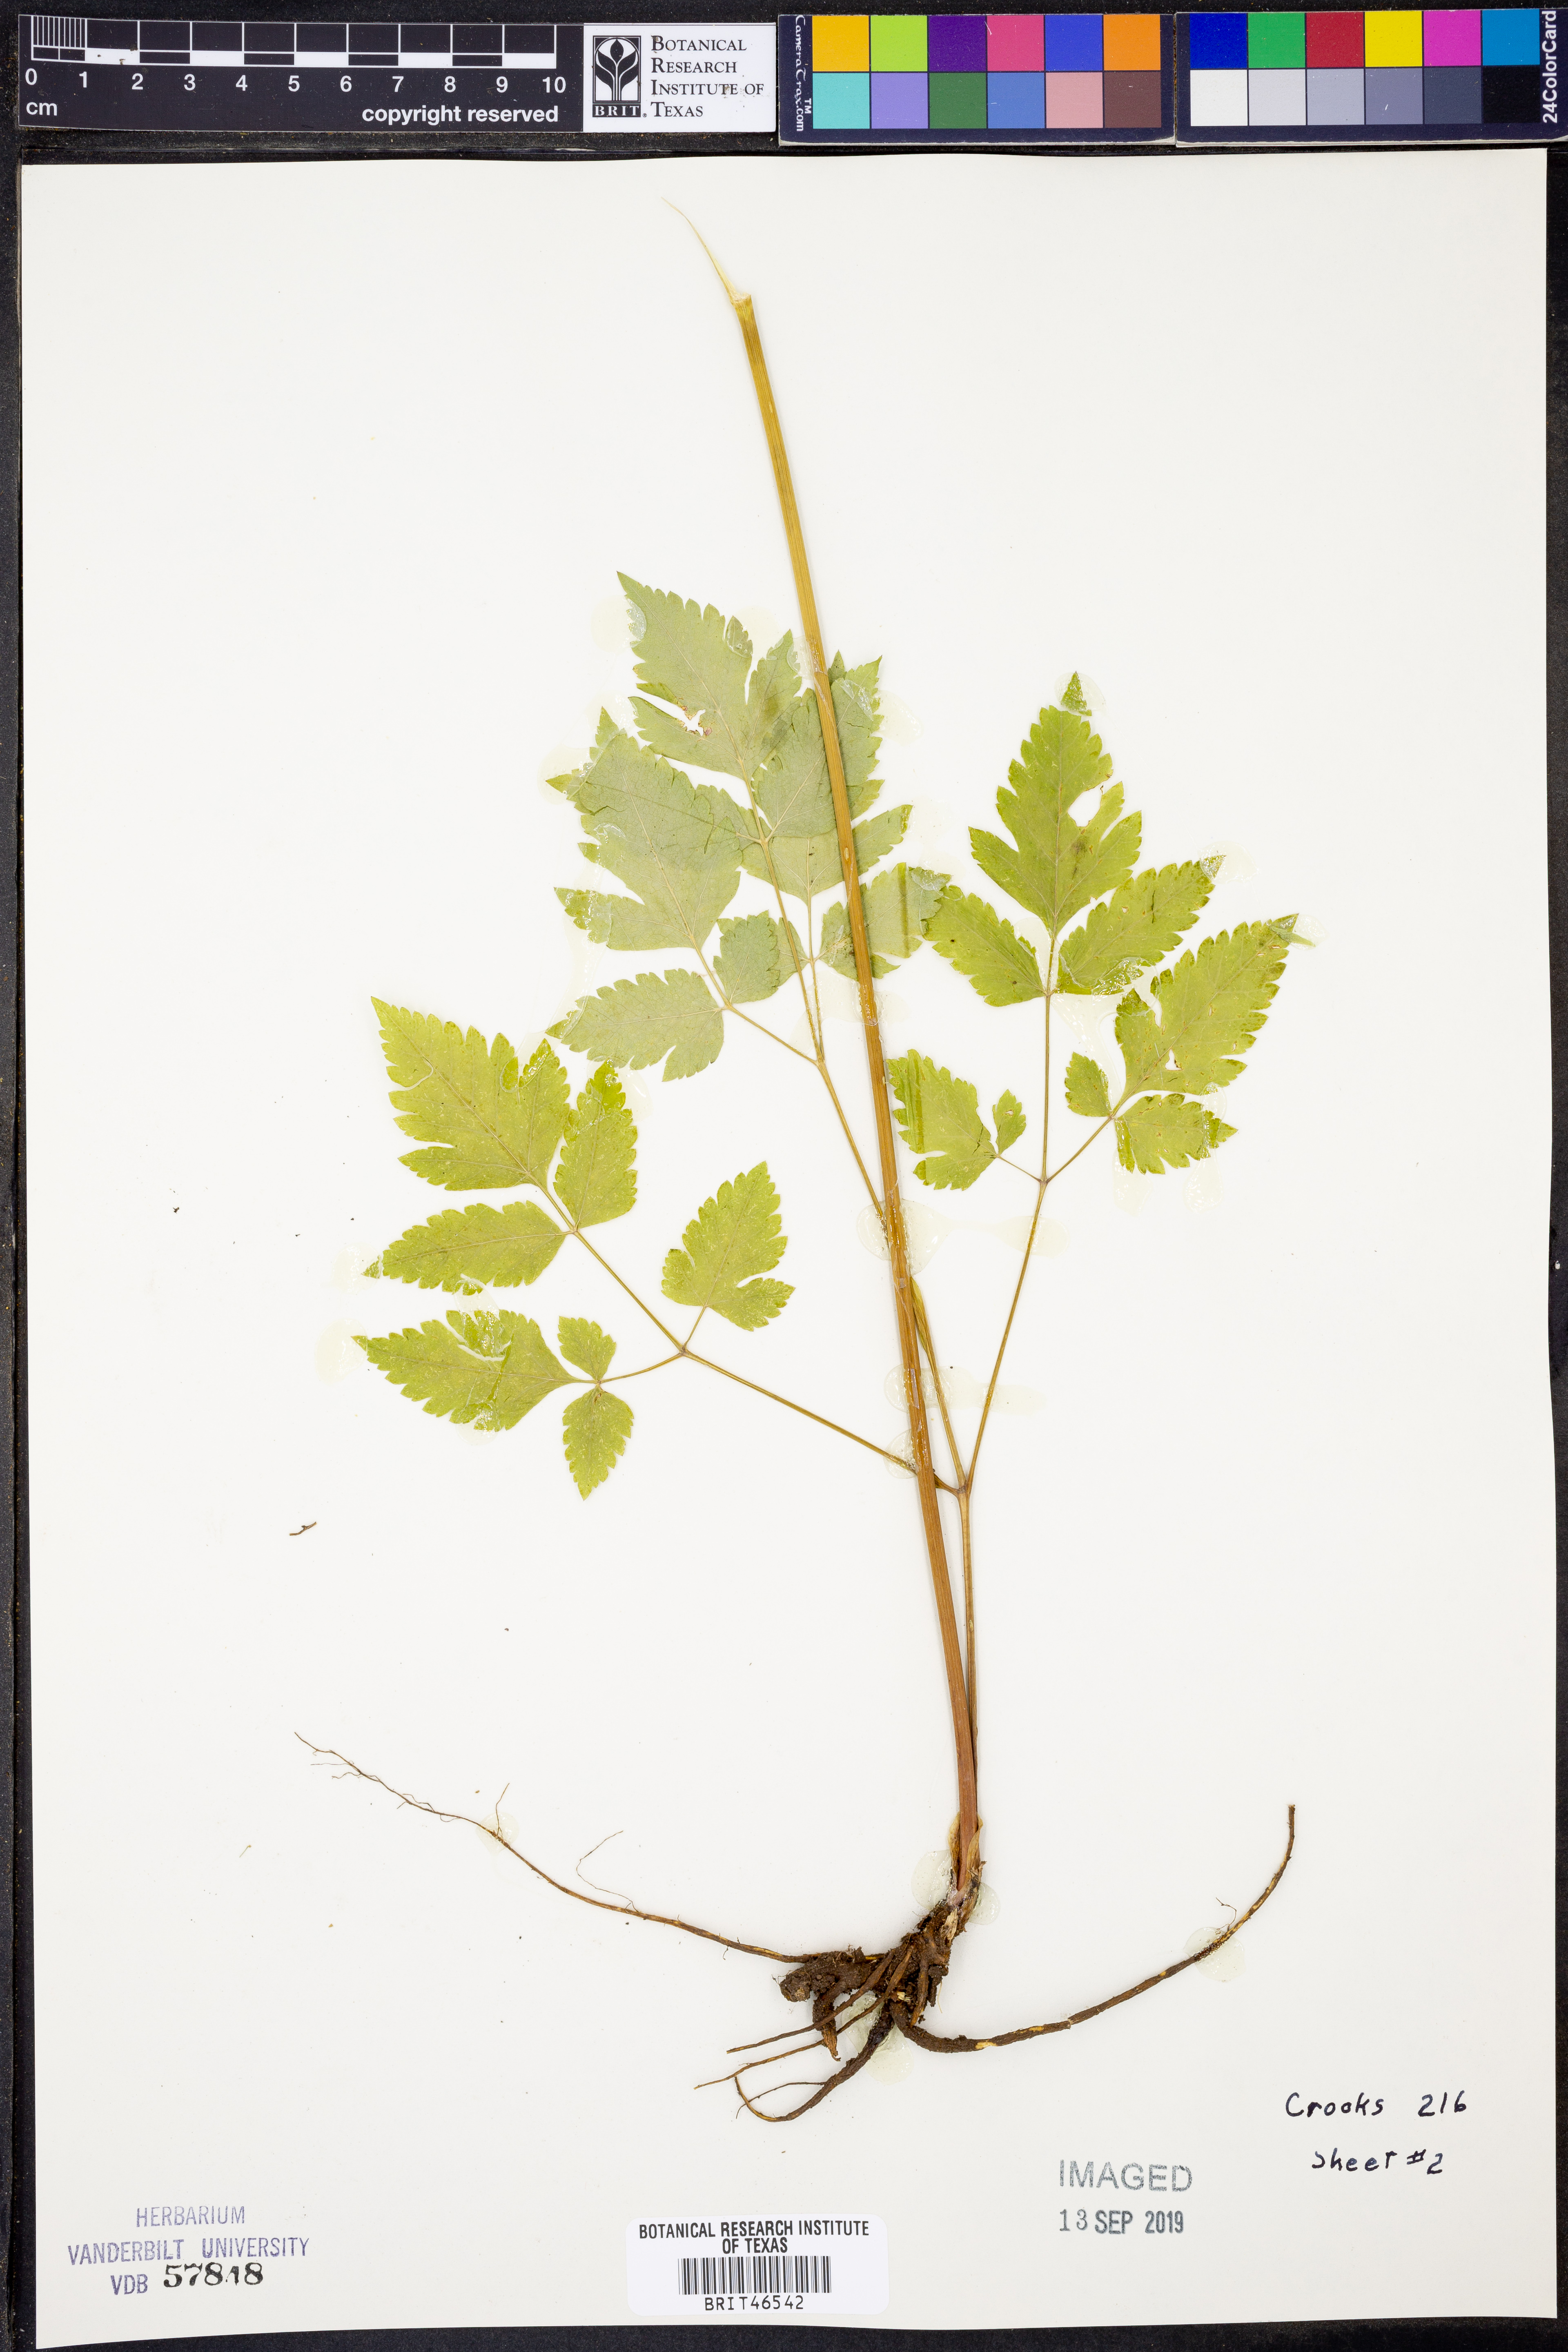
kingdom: Plantae
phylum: Tracheophyta
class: Magnoliopsida
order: Apiales
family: Apiaceae
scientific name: Apiaceae
